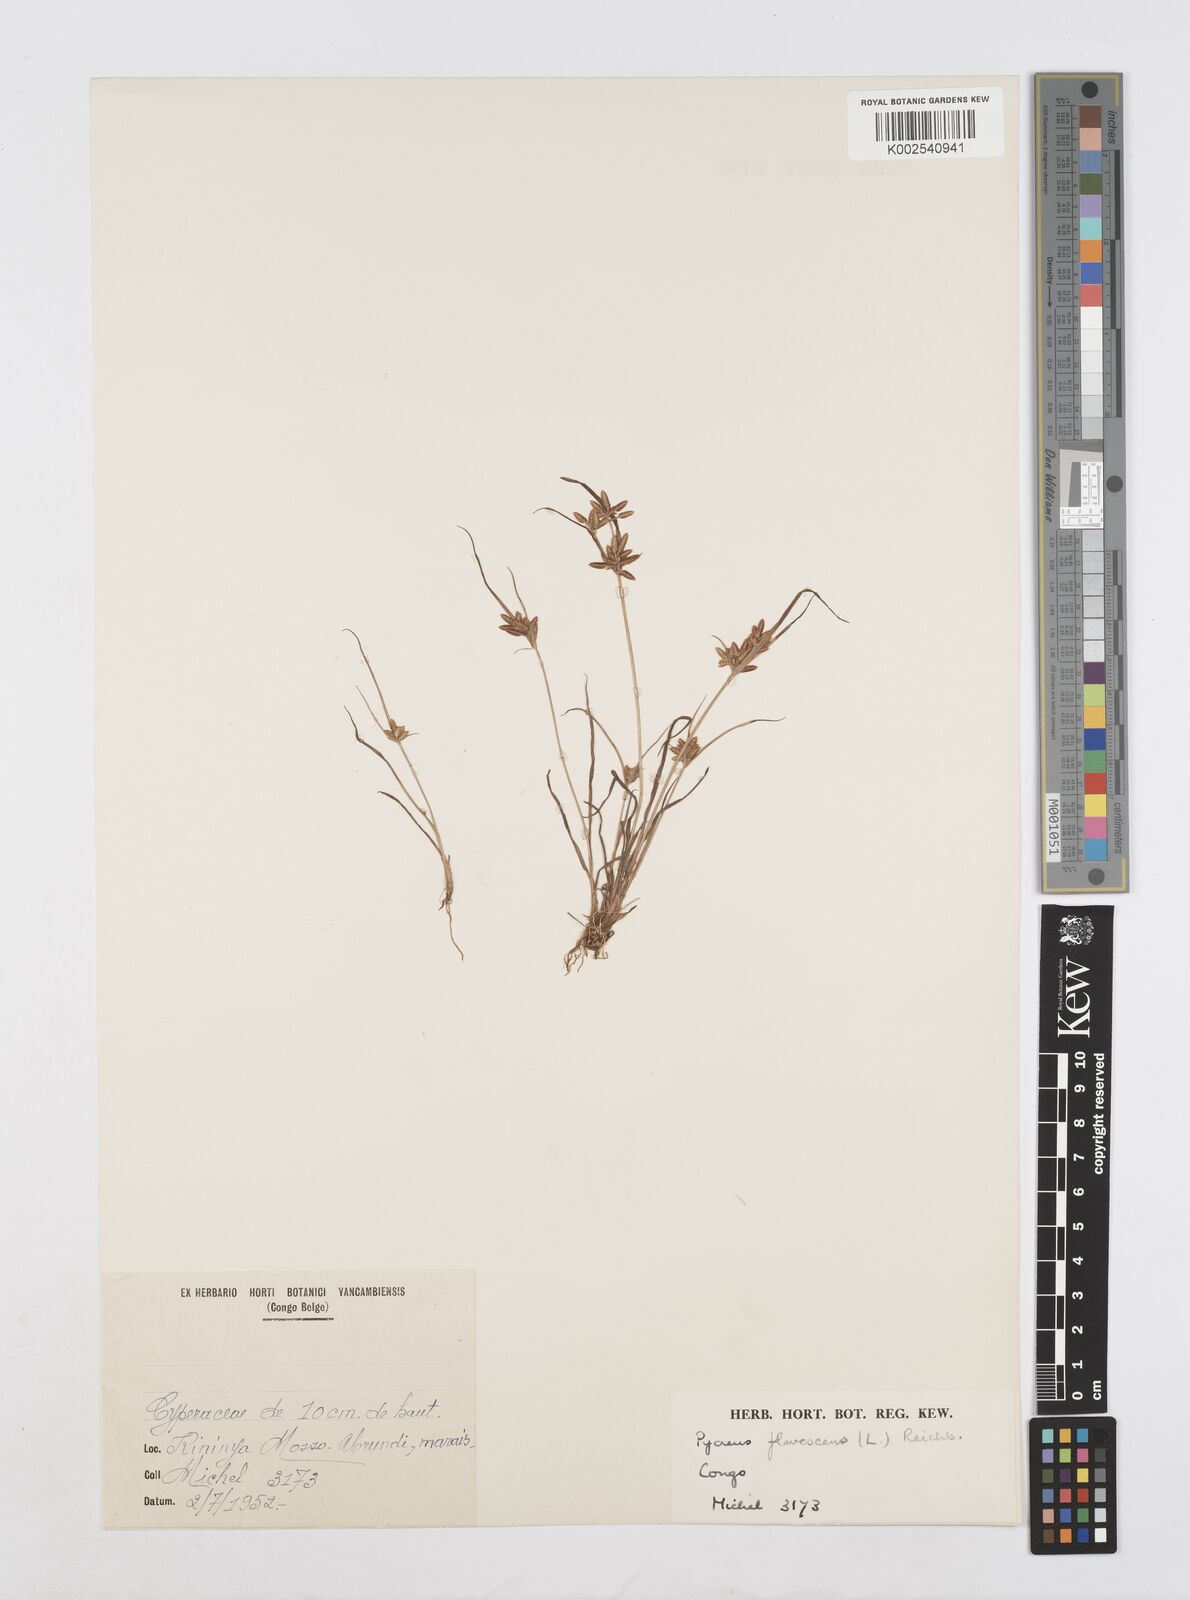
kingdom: Plantae
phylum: Tracheophyta
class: Liliopsida
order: Poales
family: Cyperaceae
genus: Cyperus
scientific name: Cyperus flavescens
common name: Yellow galingale
